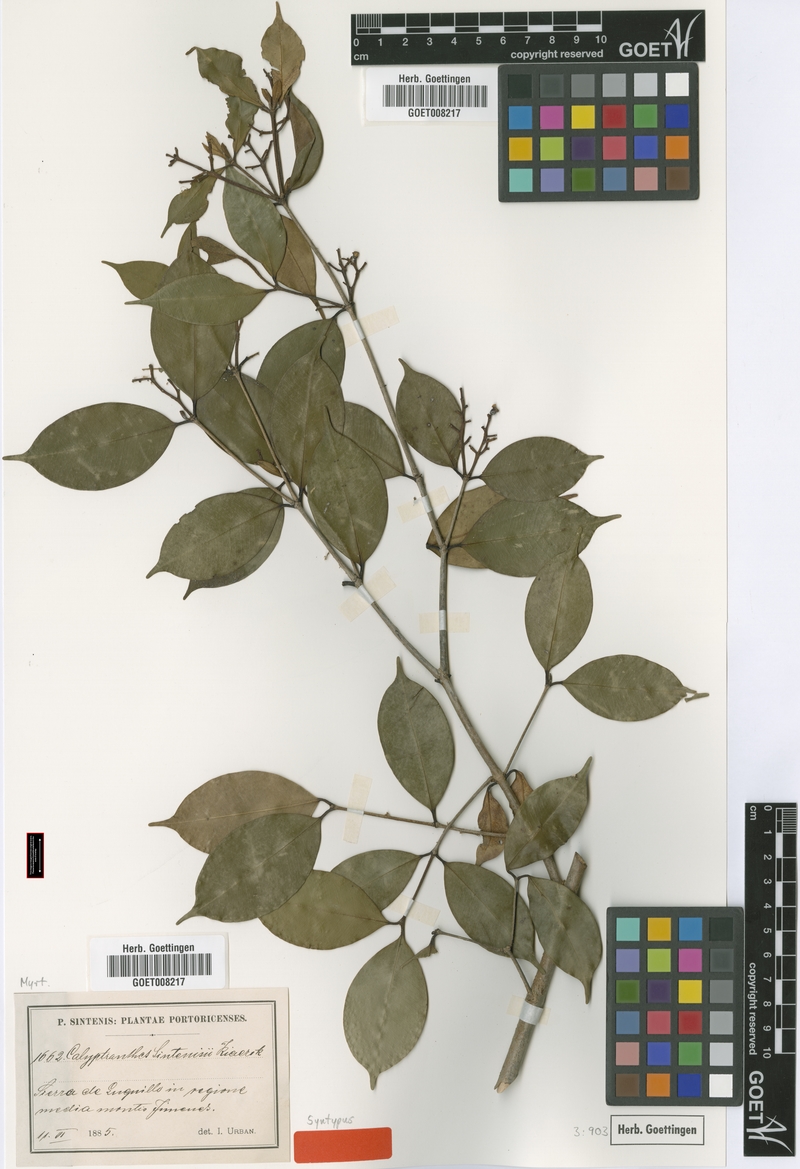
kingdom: Plantae
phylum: Tracheophyta
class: Magnoliopsida
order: Myrtales
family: Myrtaceae
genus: Myrcia
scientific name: Myrcia neosintenisii
